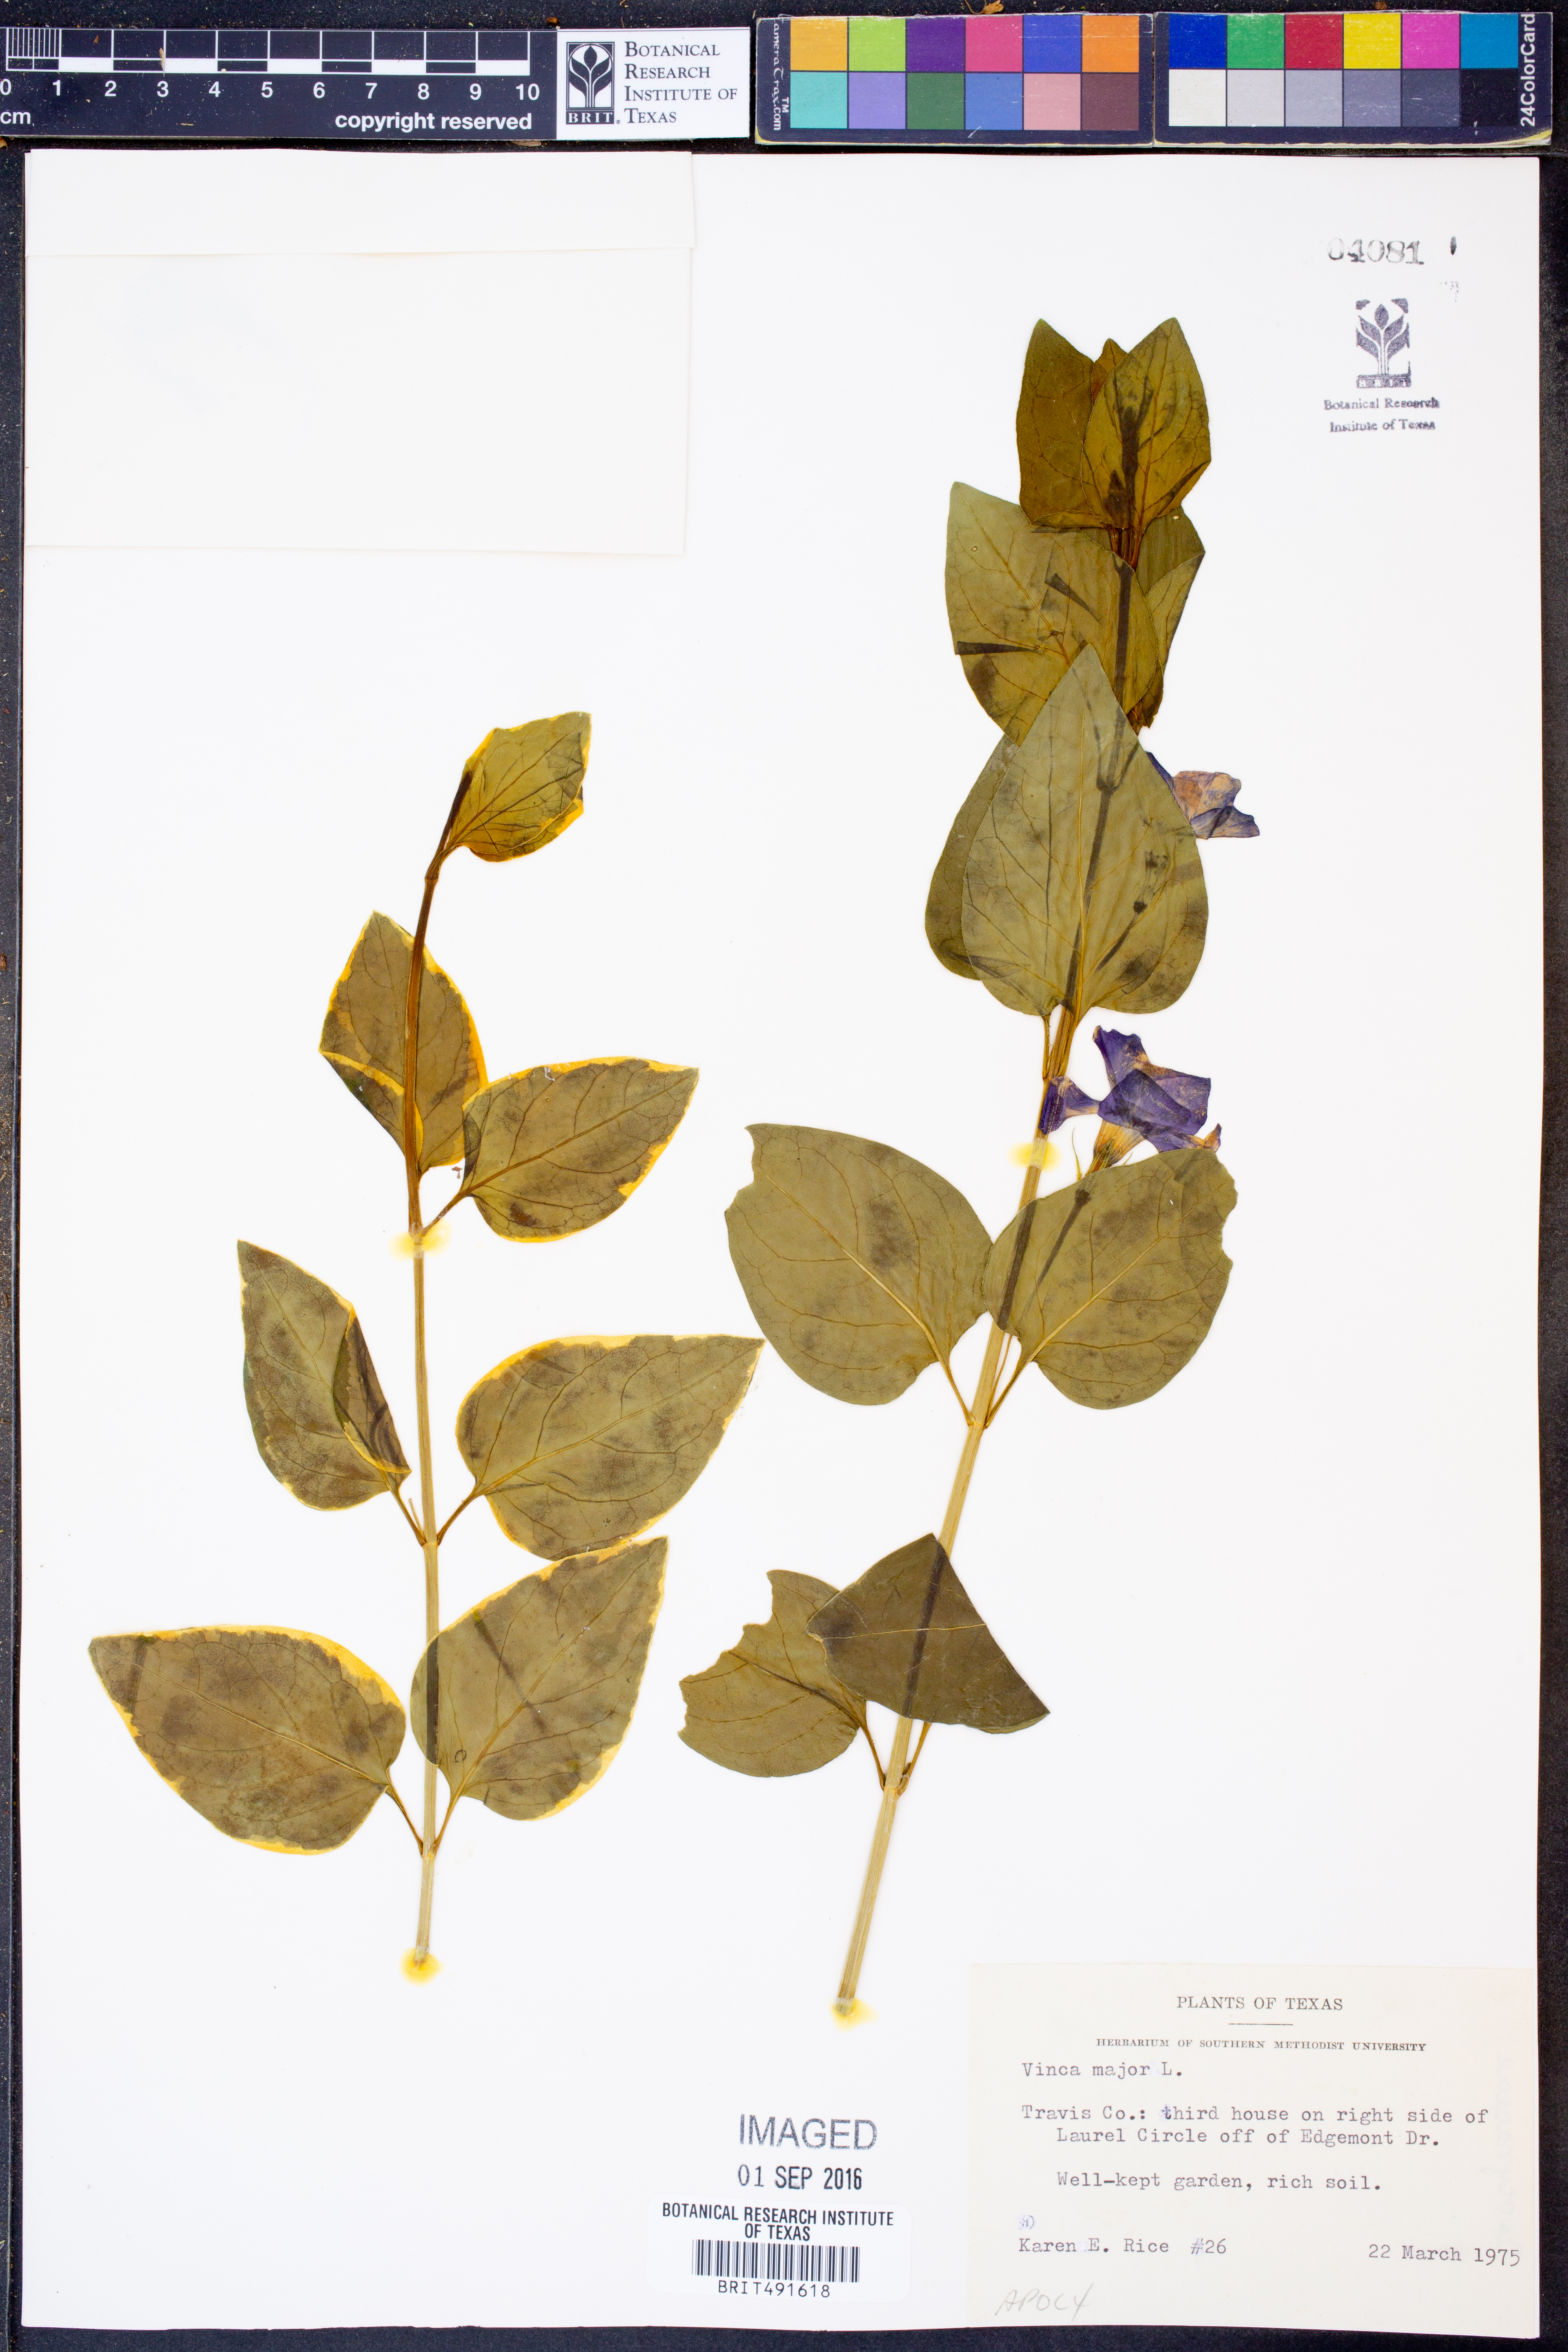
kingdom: Plantae
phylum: Tracheophyta
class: Magnoliopsida
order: Gentianales
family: Apocynaceae
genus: Vinca
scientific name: Vinca major
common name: Greater periwinkle
